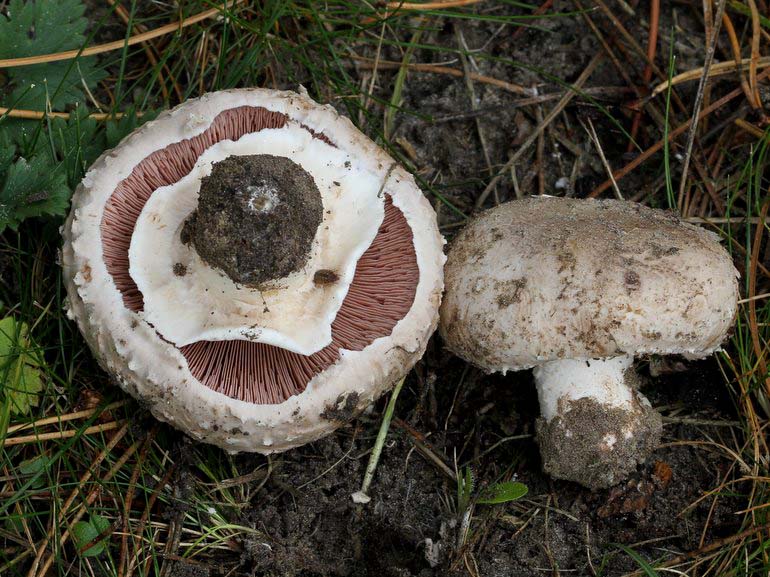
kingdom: Fungi
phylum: Basidiomycota
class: Agaricomycetes
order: Agaricales
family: Agaricaceae
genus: Agaricus
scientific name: Agaricus subfloccosus
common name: randskællet champignon
